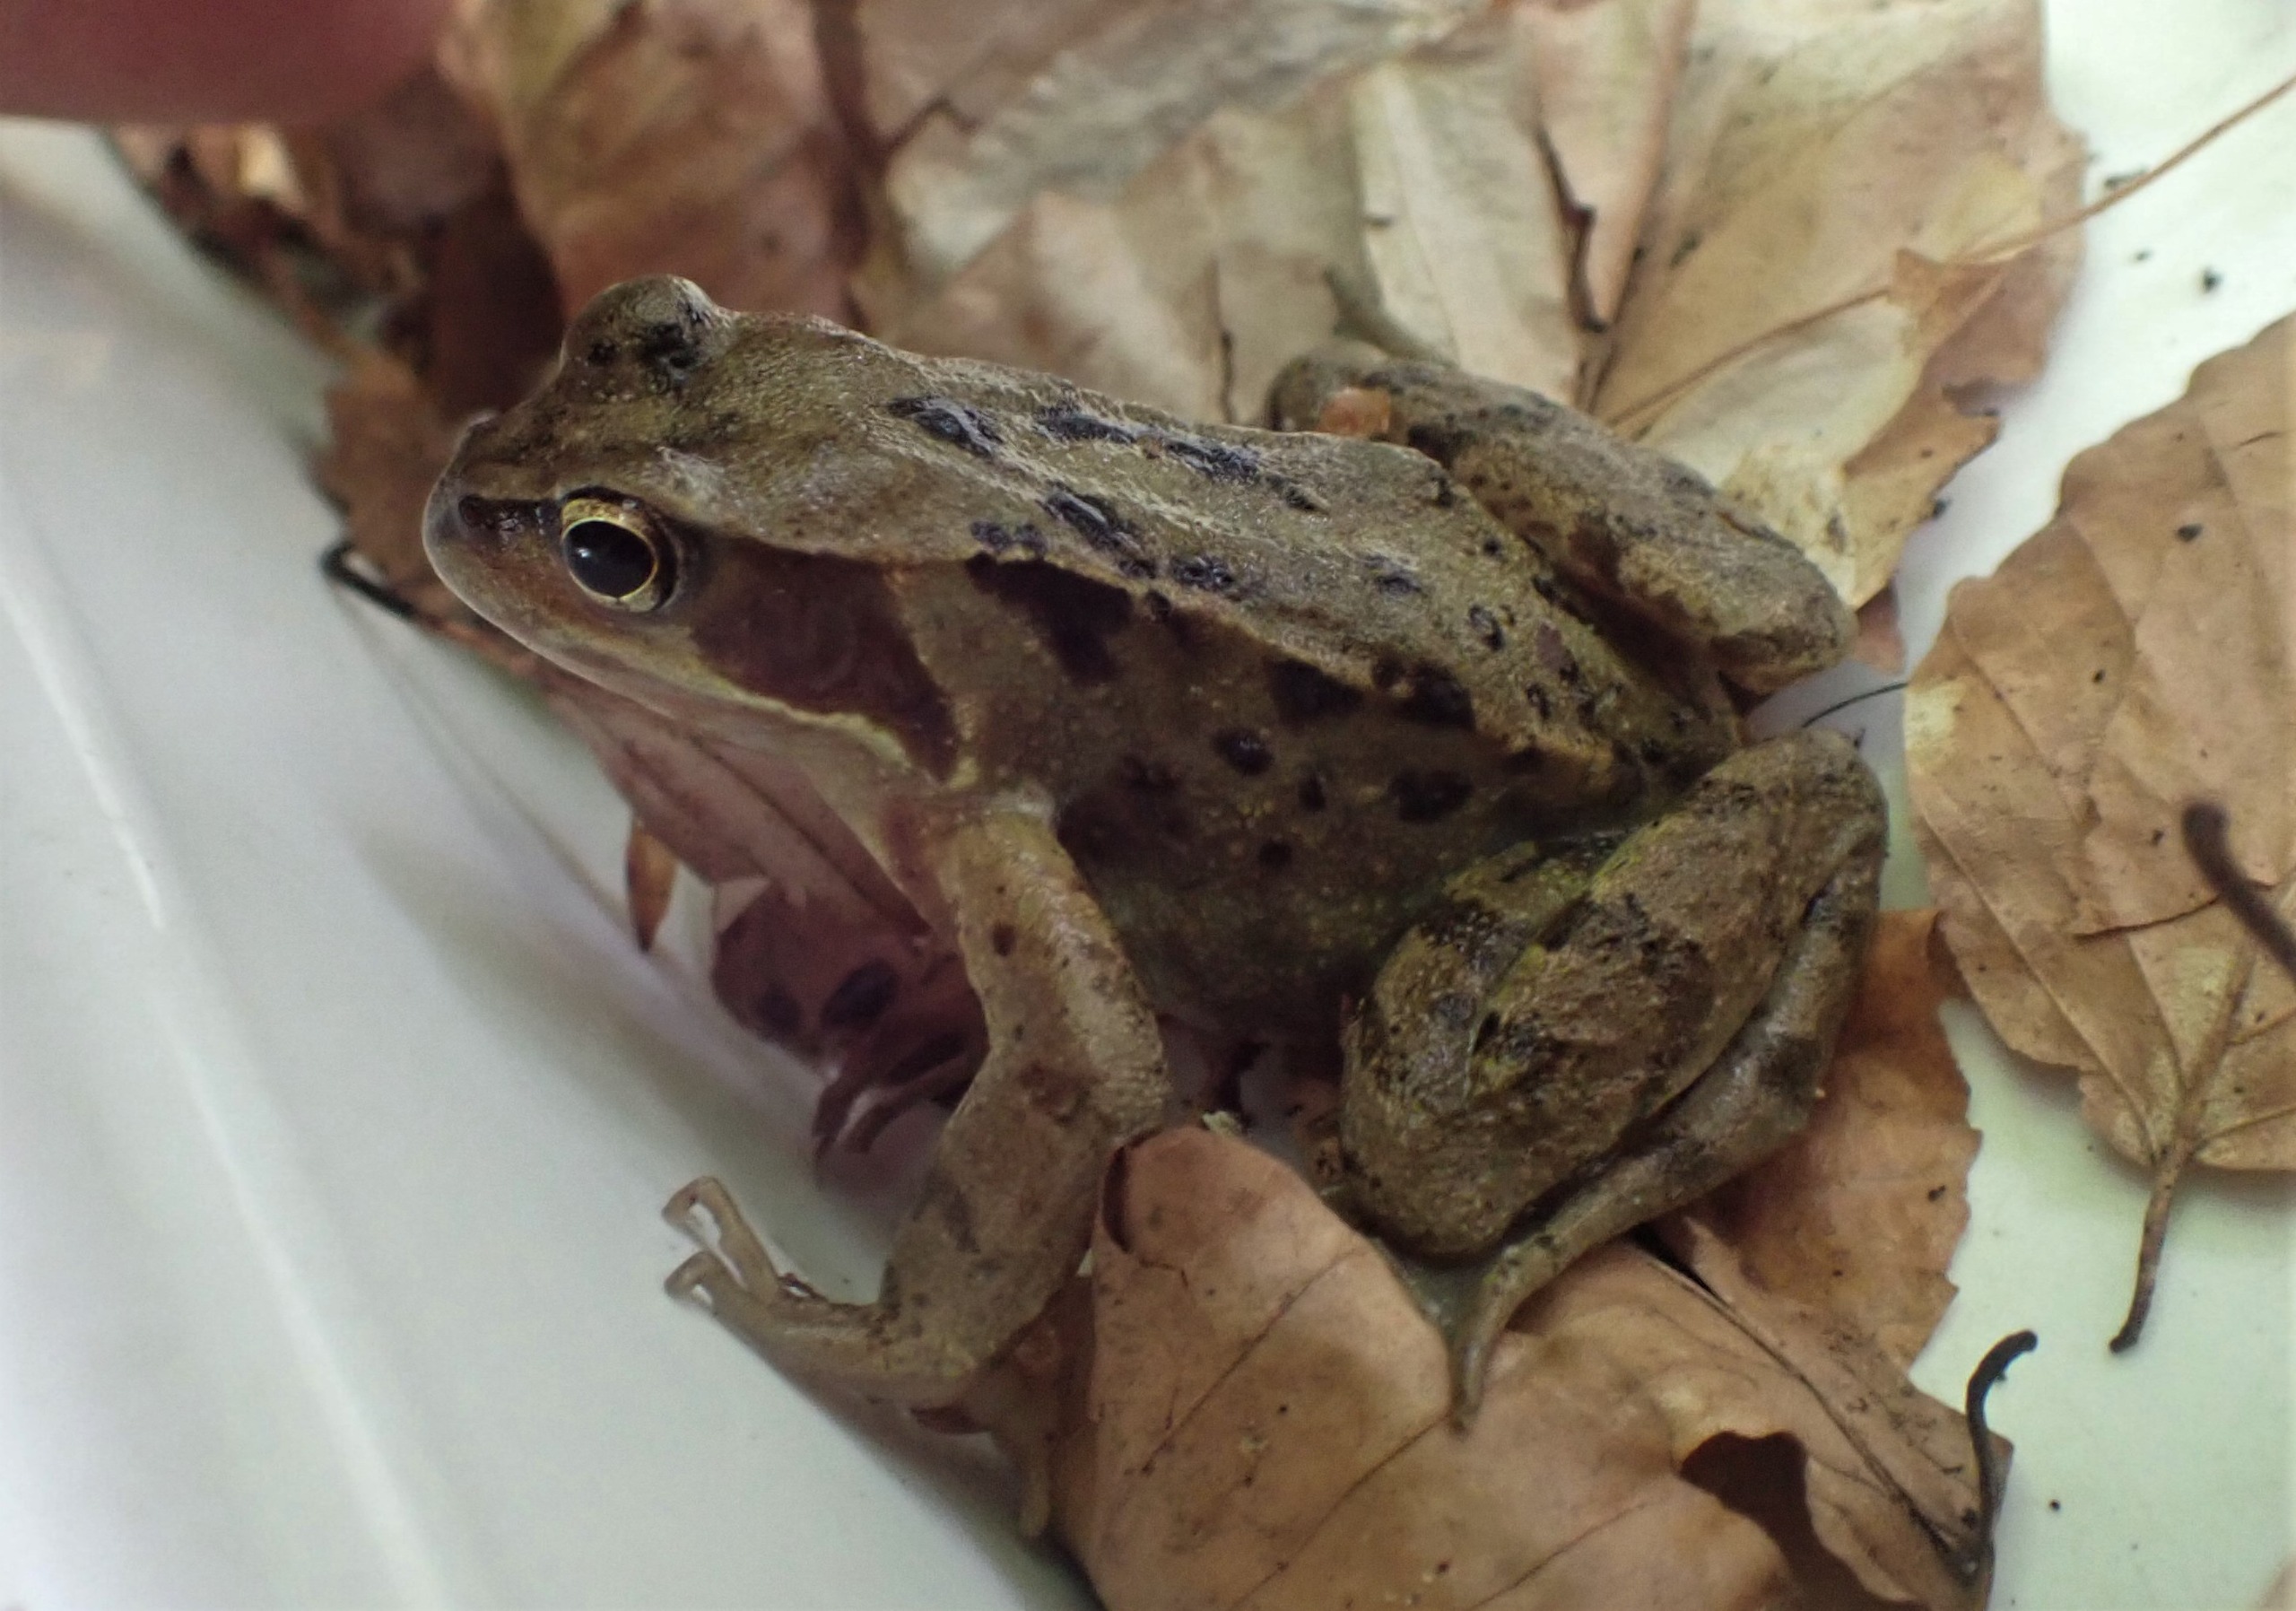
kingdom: Animalia
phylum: Chordata
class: Amphibia
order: Anura
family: Ranidae
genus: Rana
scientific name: Rana temporaria
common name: Butsnudet frø
